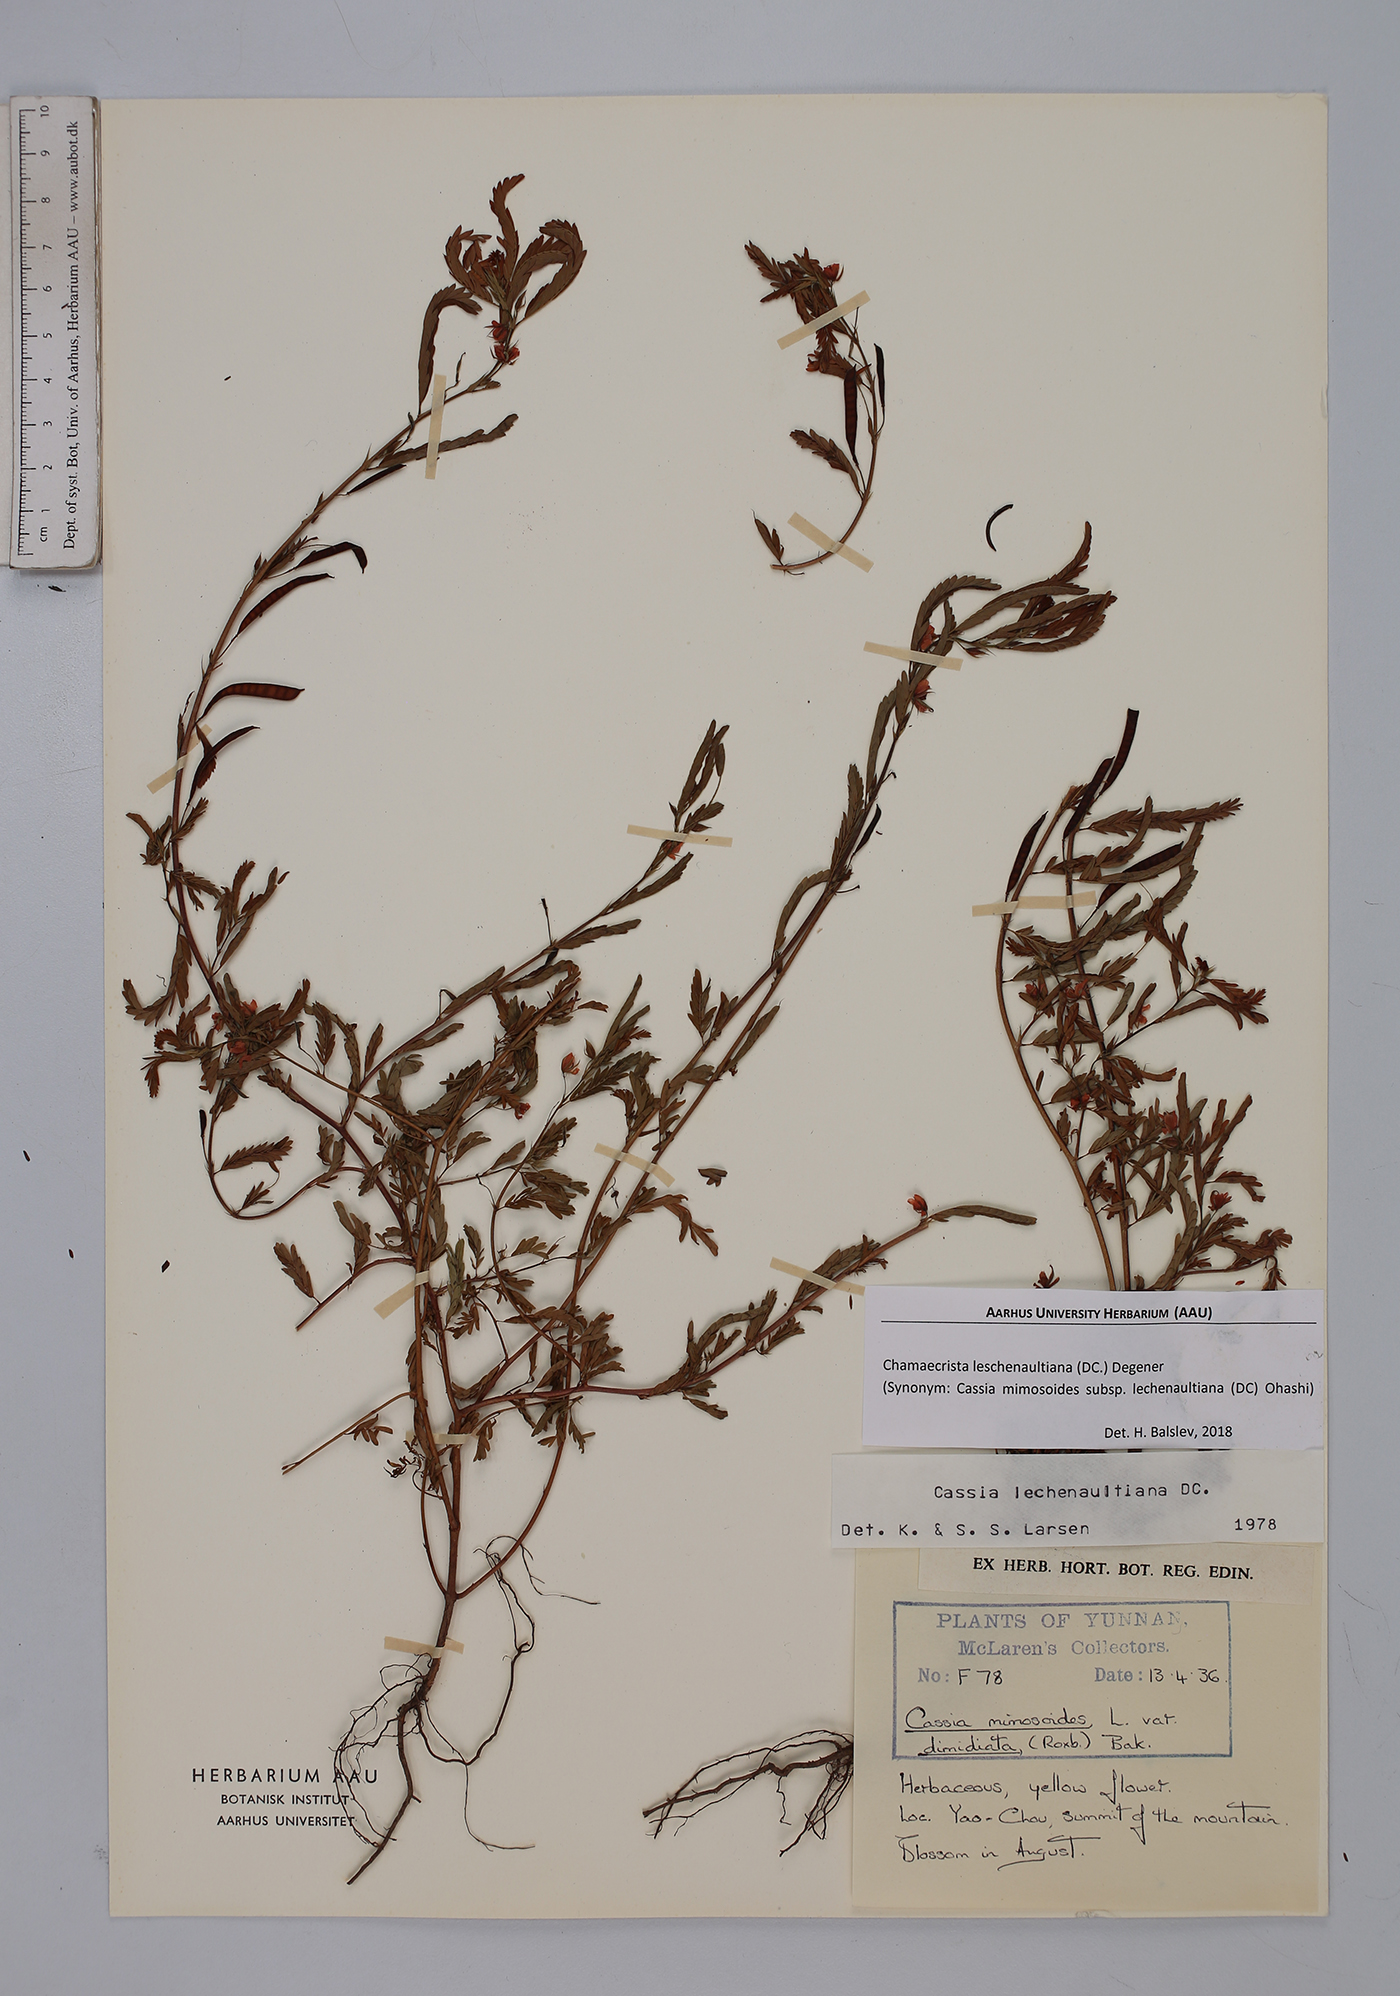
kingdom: Plantae
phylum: Tracheophyta
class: Magnoliopsida
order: Fabales
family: Fabaceae
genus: Chamaecrista
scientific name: Chamaecrista nictitans
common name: Sensitive cassia
